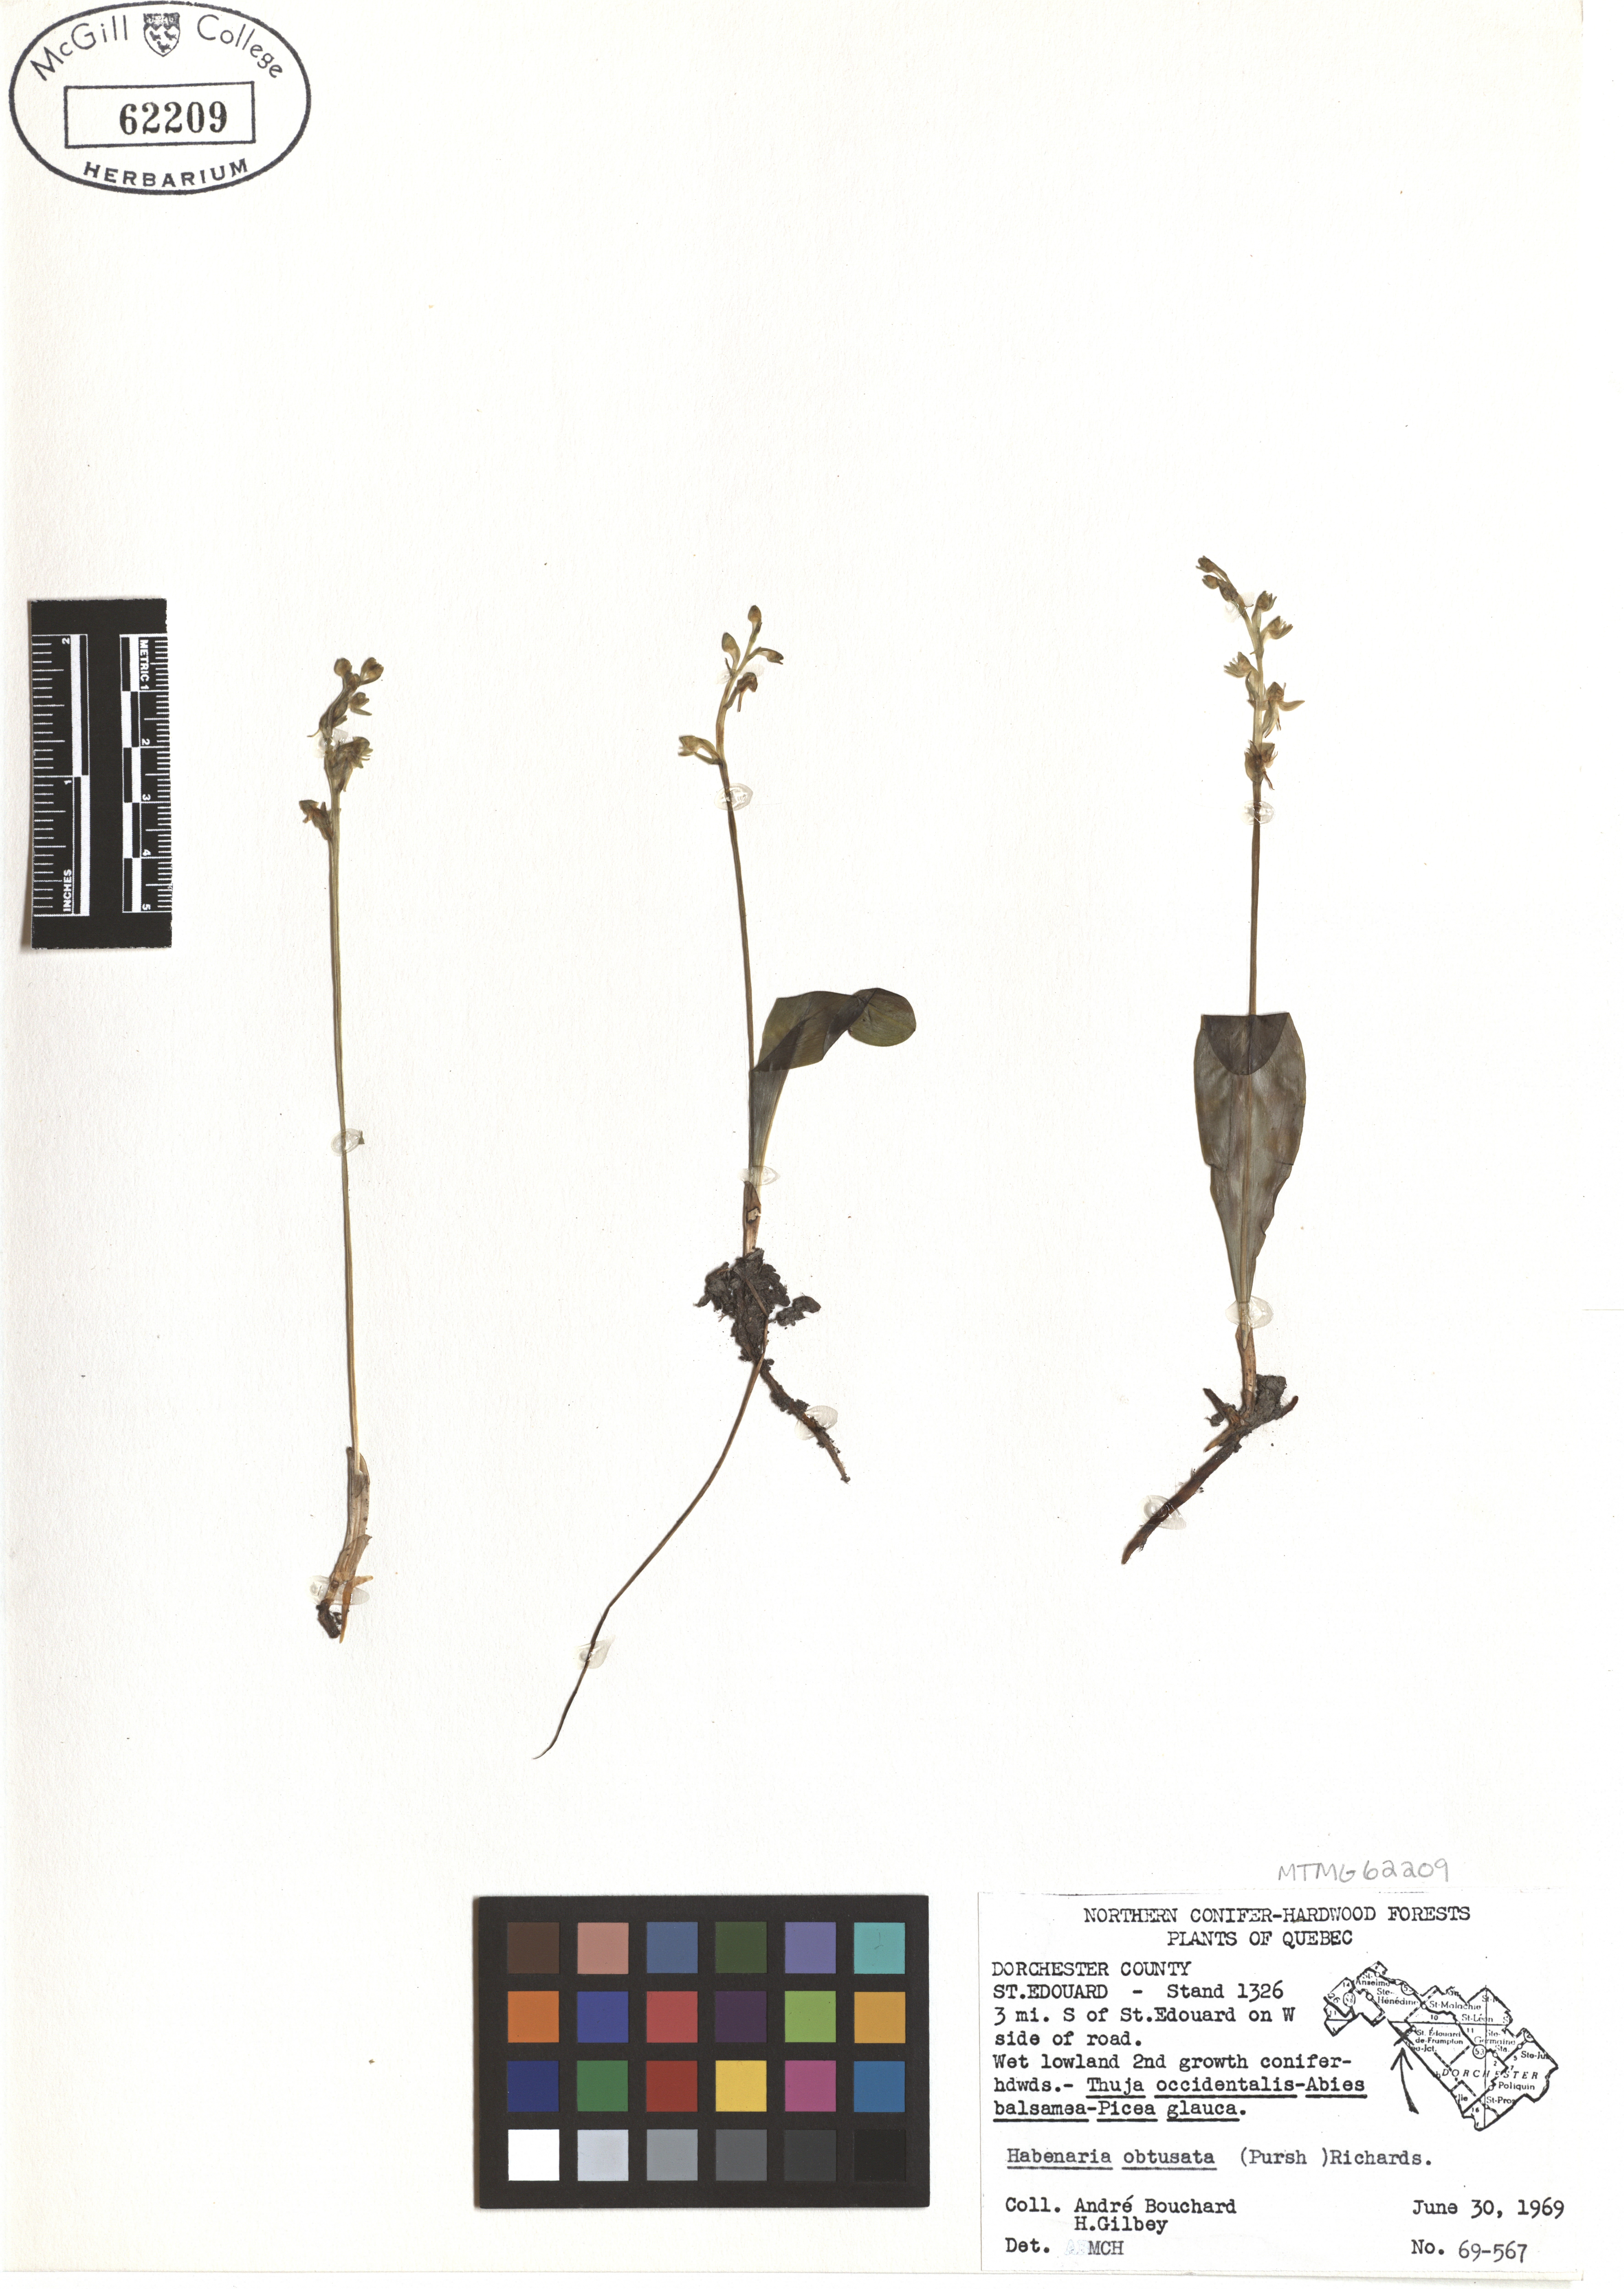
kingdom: Plantae
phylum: Tracheophyta
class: Liliopsida
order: Asparagales
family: Orchidaceae
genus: Platanthera
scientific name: Platanthera obtusata
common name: Blunt bog orchid
